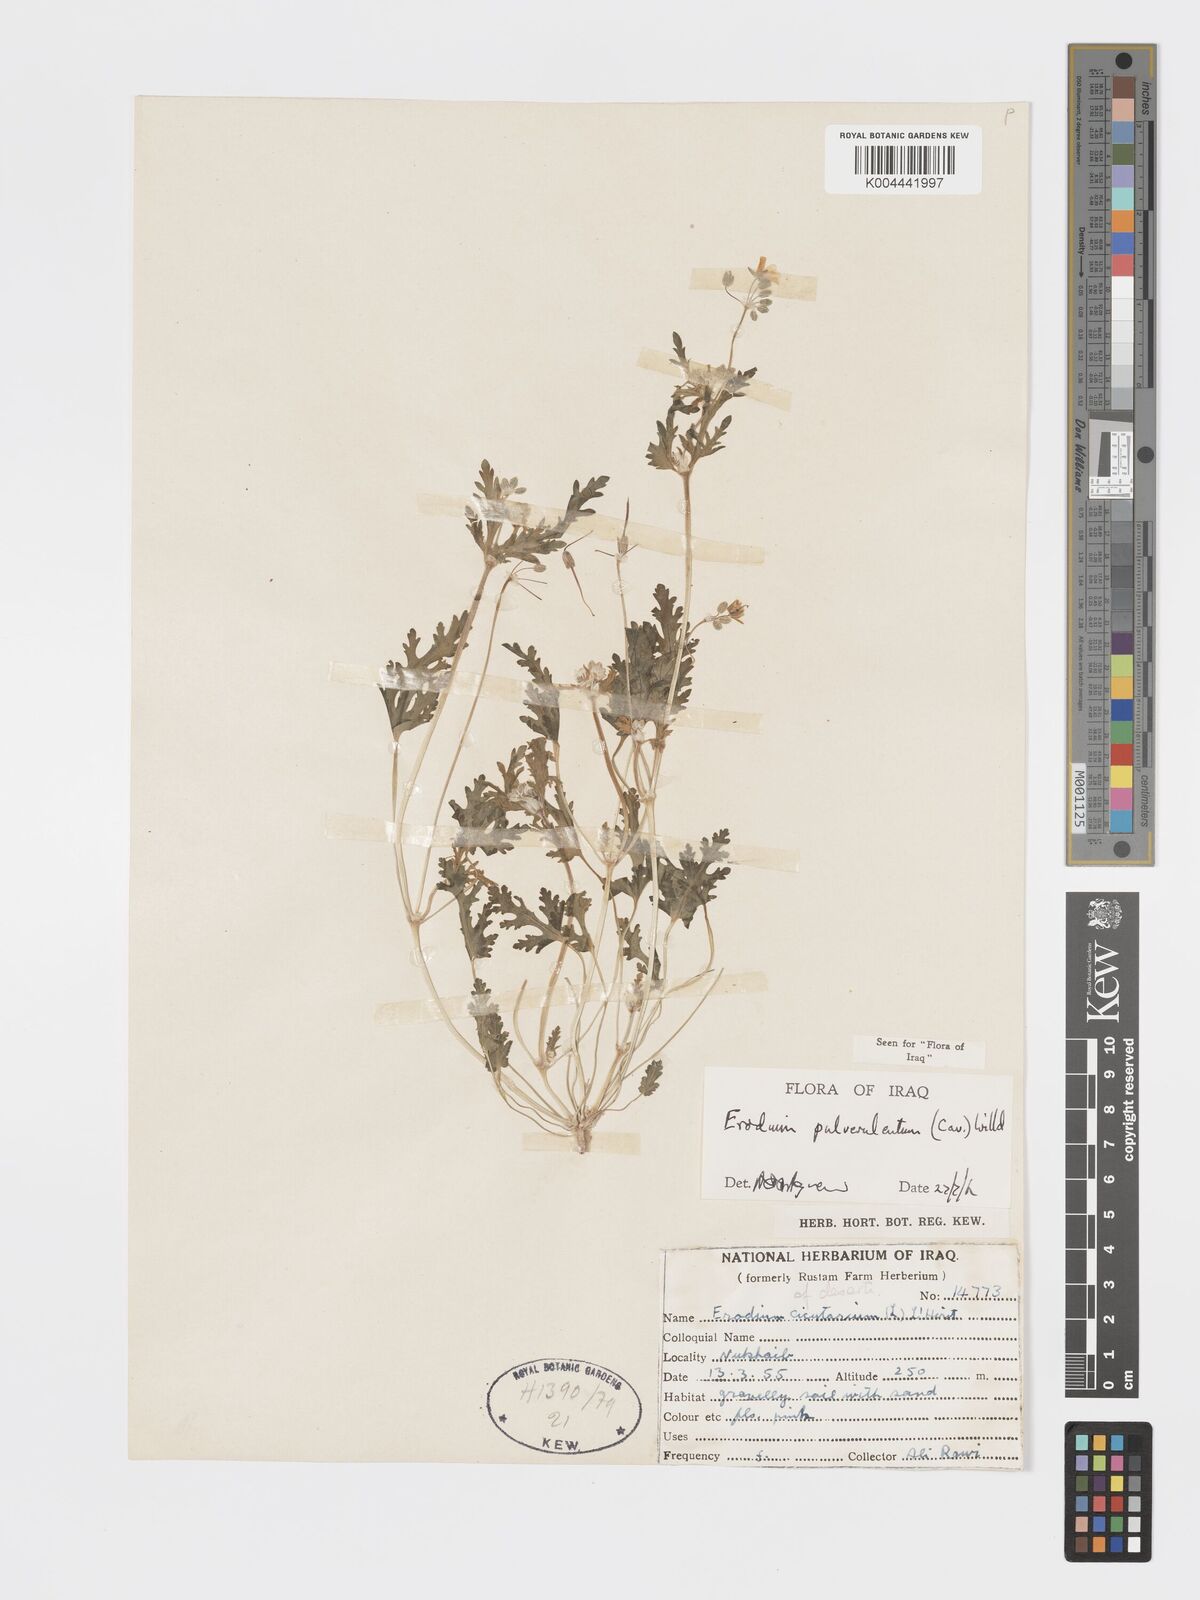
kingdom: Plantae
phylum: Tracheophyta
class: Magnoliopsida
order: Geraniales
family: Geraniaceae
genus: Erodium
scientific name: Erodium laciniatum
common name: Cutleaf stork's bill
